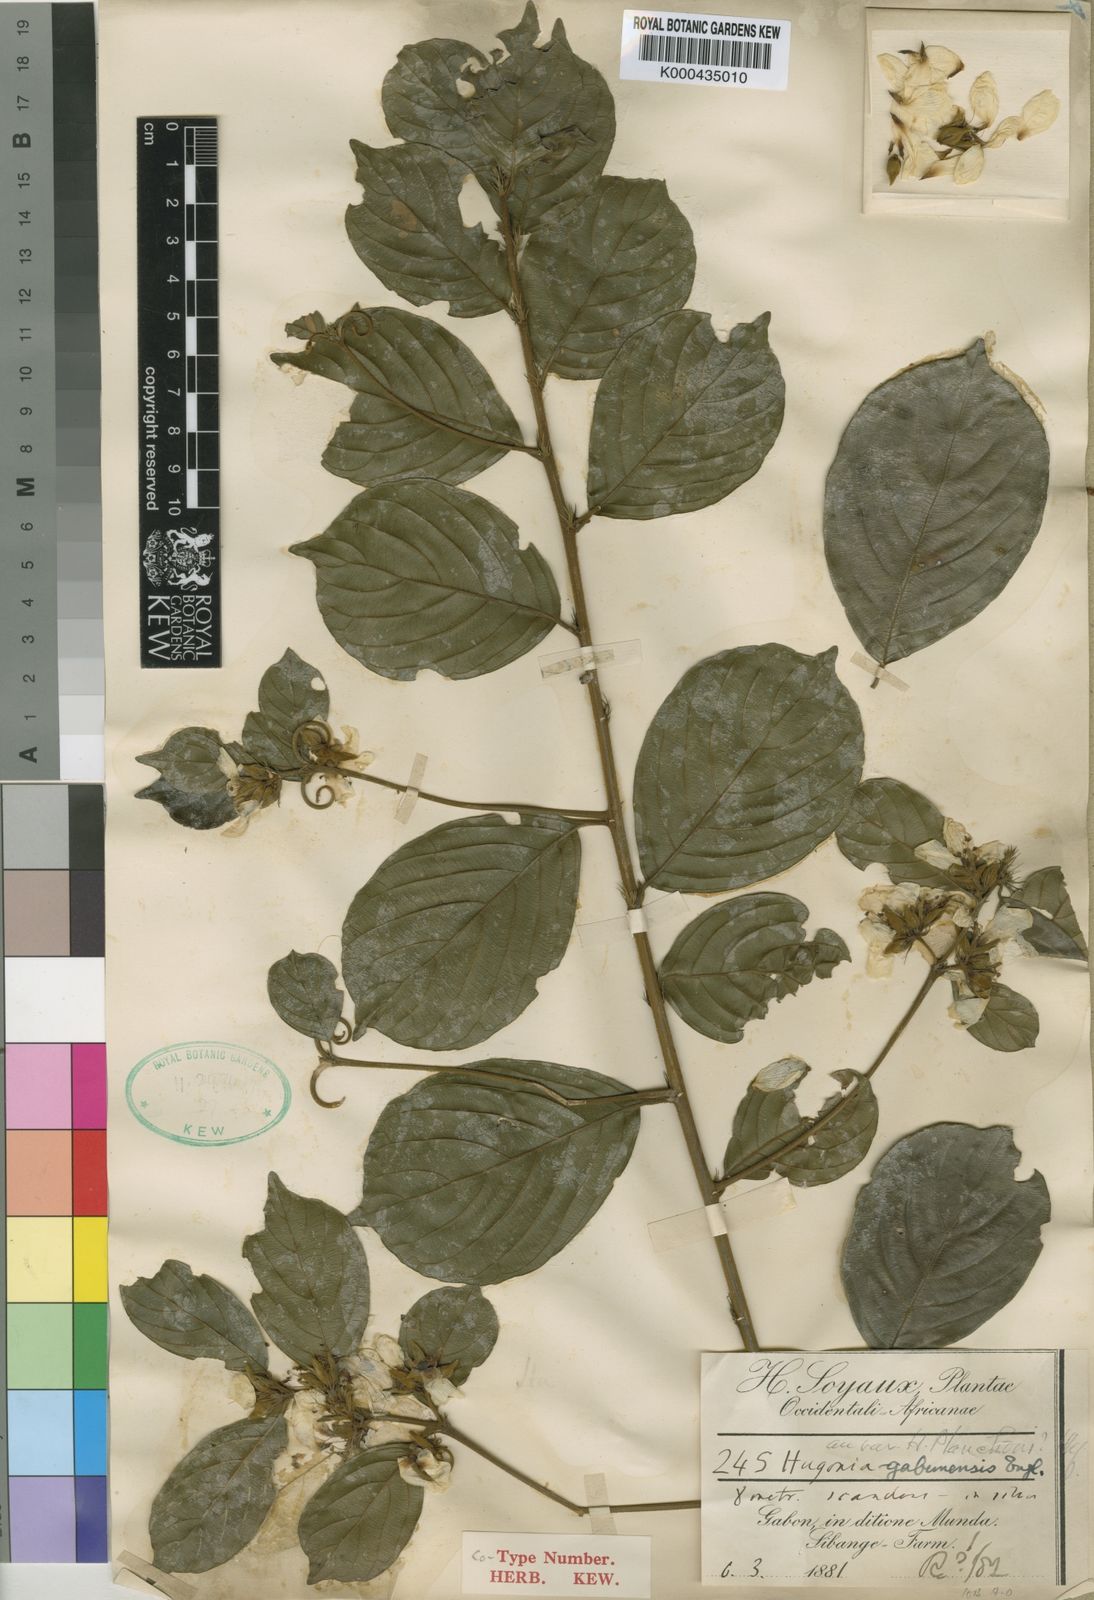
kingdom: Plantae
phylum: Tracheophyta
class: Magnoliopsida
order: Malpighiales
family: Linaceae
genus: Hugonia
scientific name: Hugonia gabunensis
